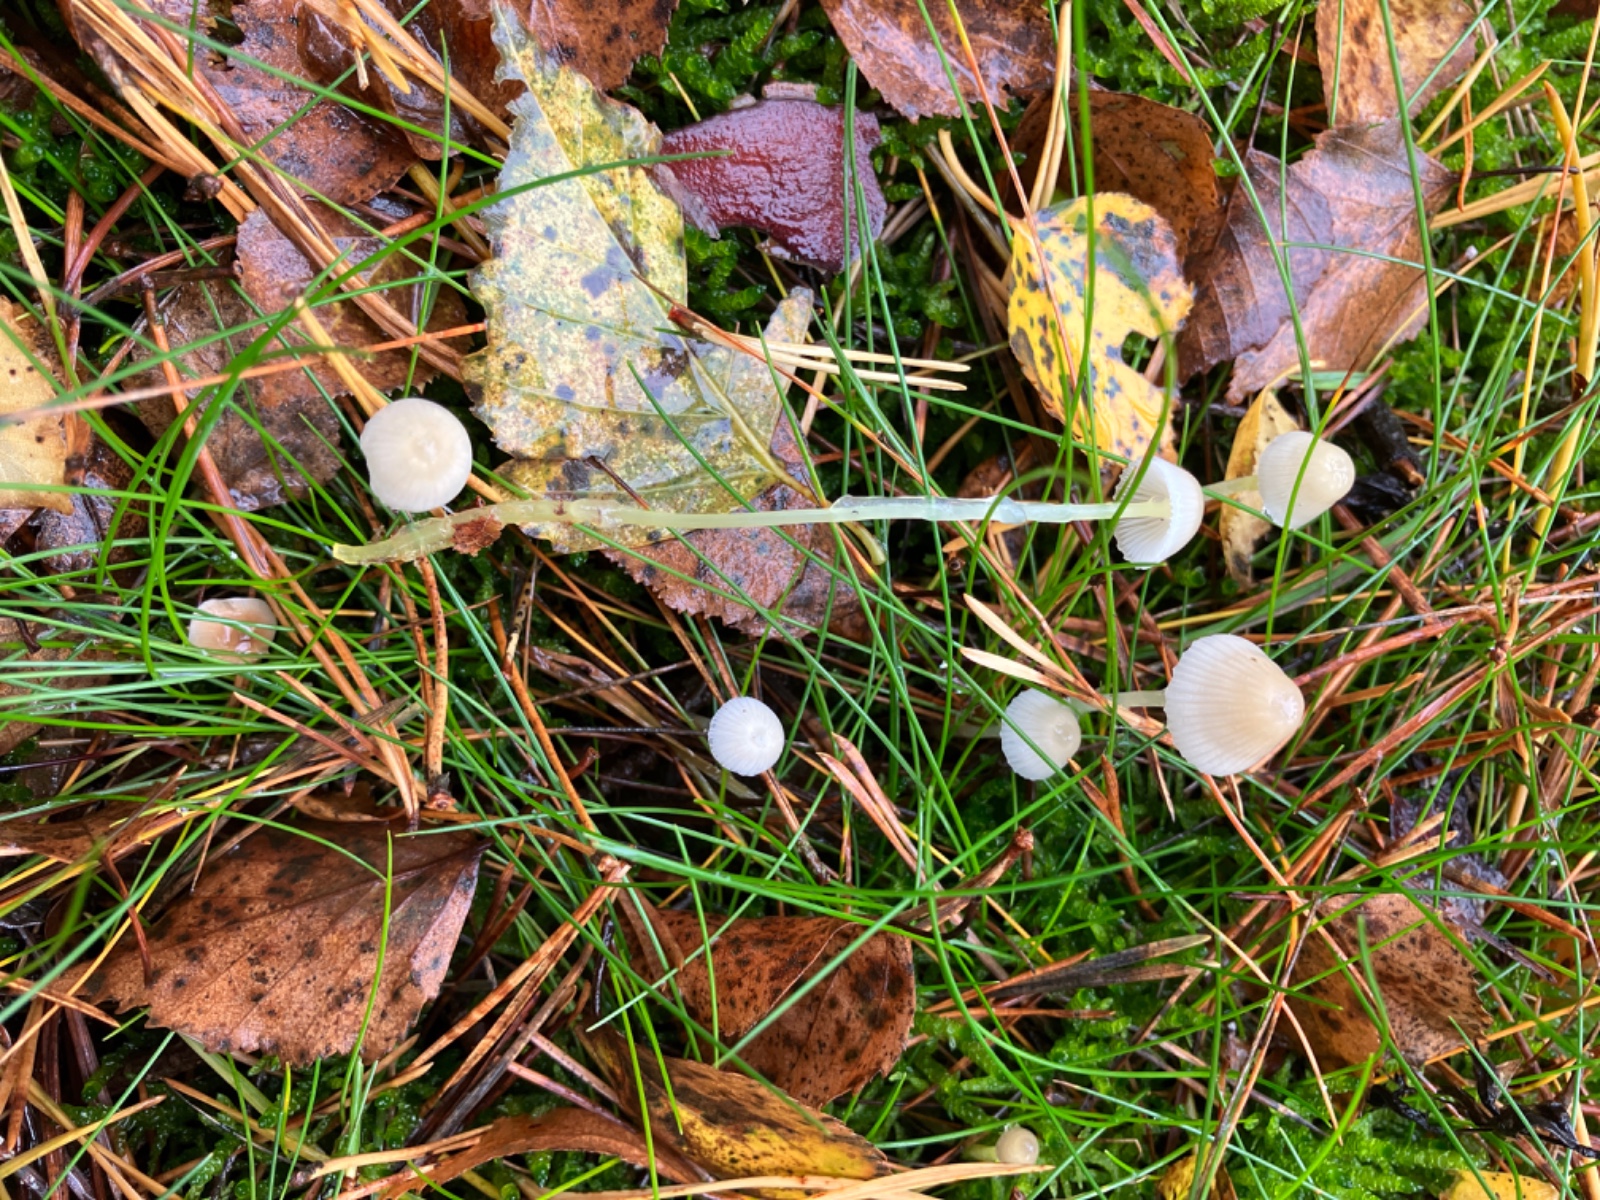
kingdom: Fungi
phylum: Basidiomycota
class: Agaricomycetes
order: Agaricales
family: Mycenaceae
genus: Mycena
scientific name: Mycena epipterygia
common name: gulstokket huesvamp
